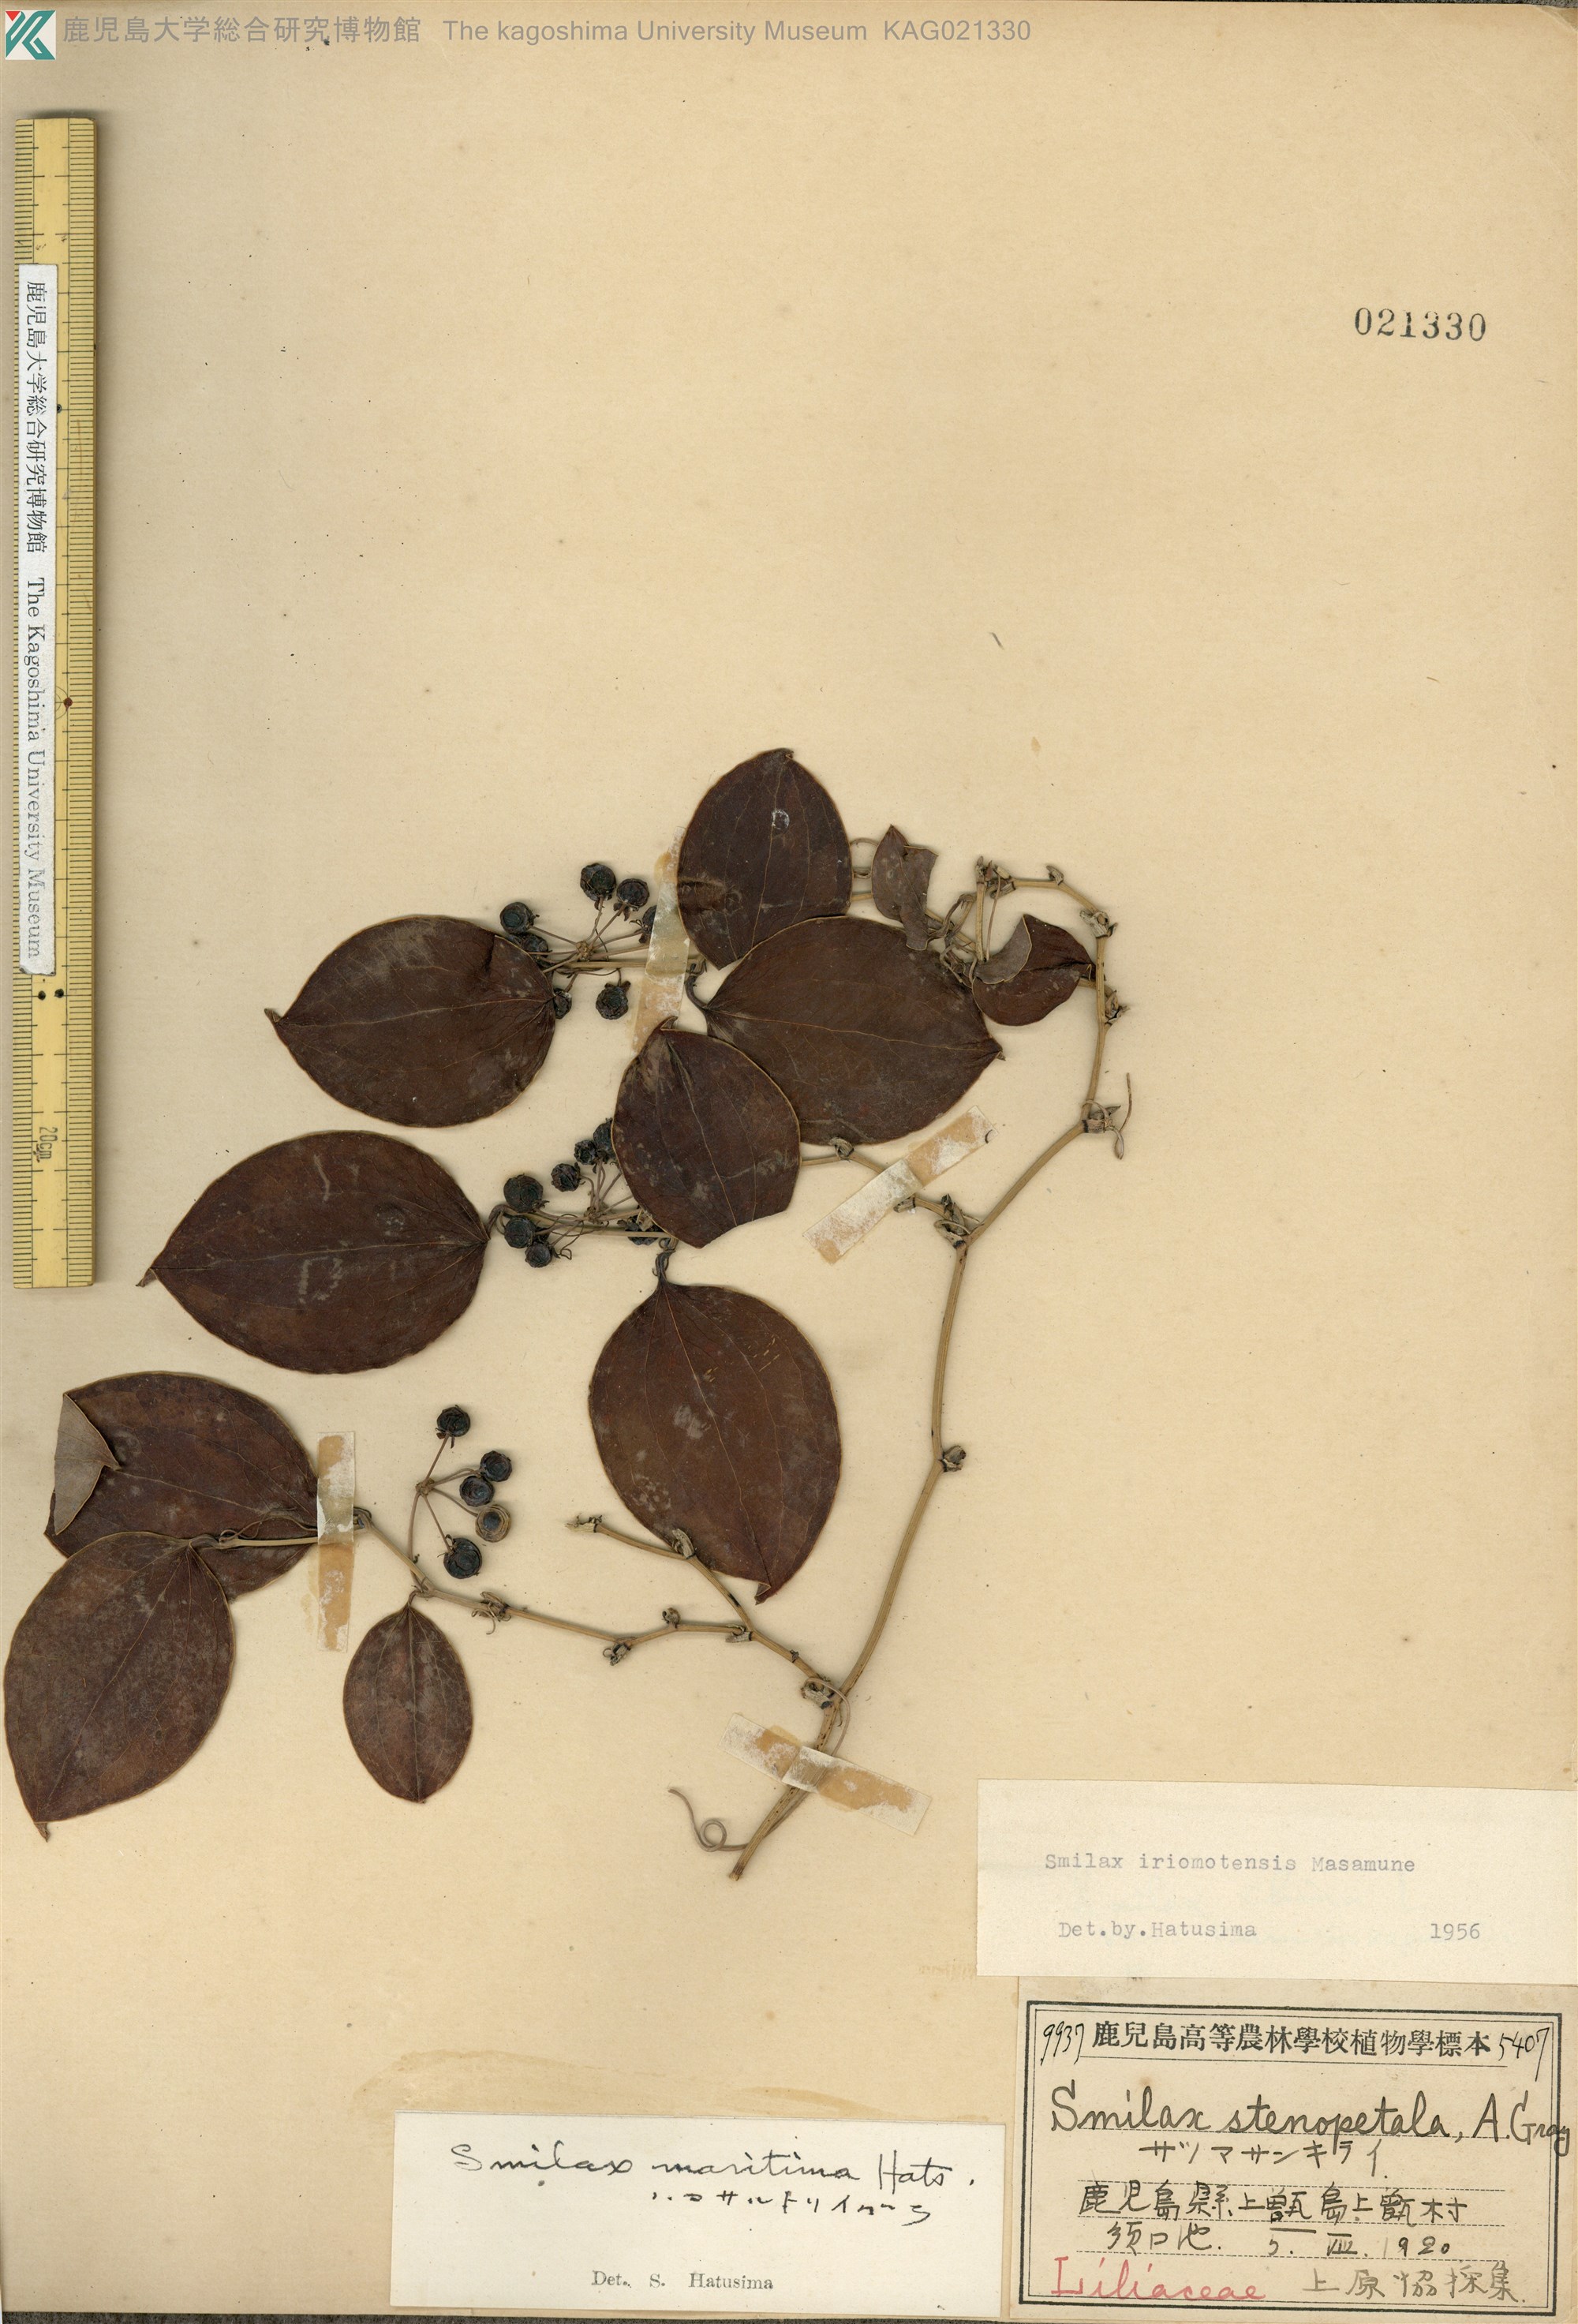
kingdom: Plantae
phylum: Tracheophyta
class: Liliopsida
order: Liliales
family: Smilacaceae
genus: Smilax
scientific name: Smilax sebeana
